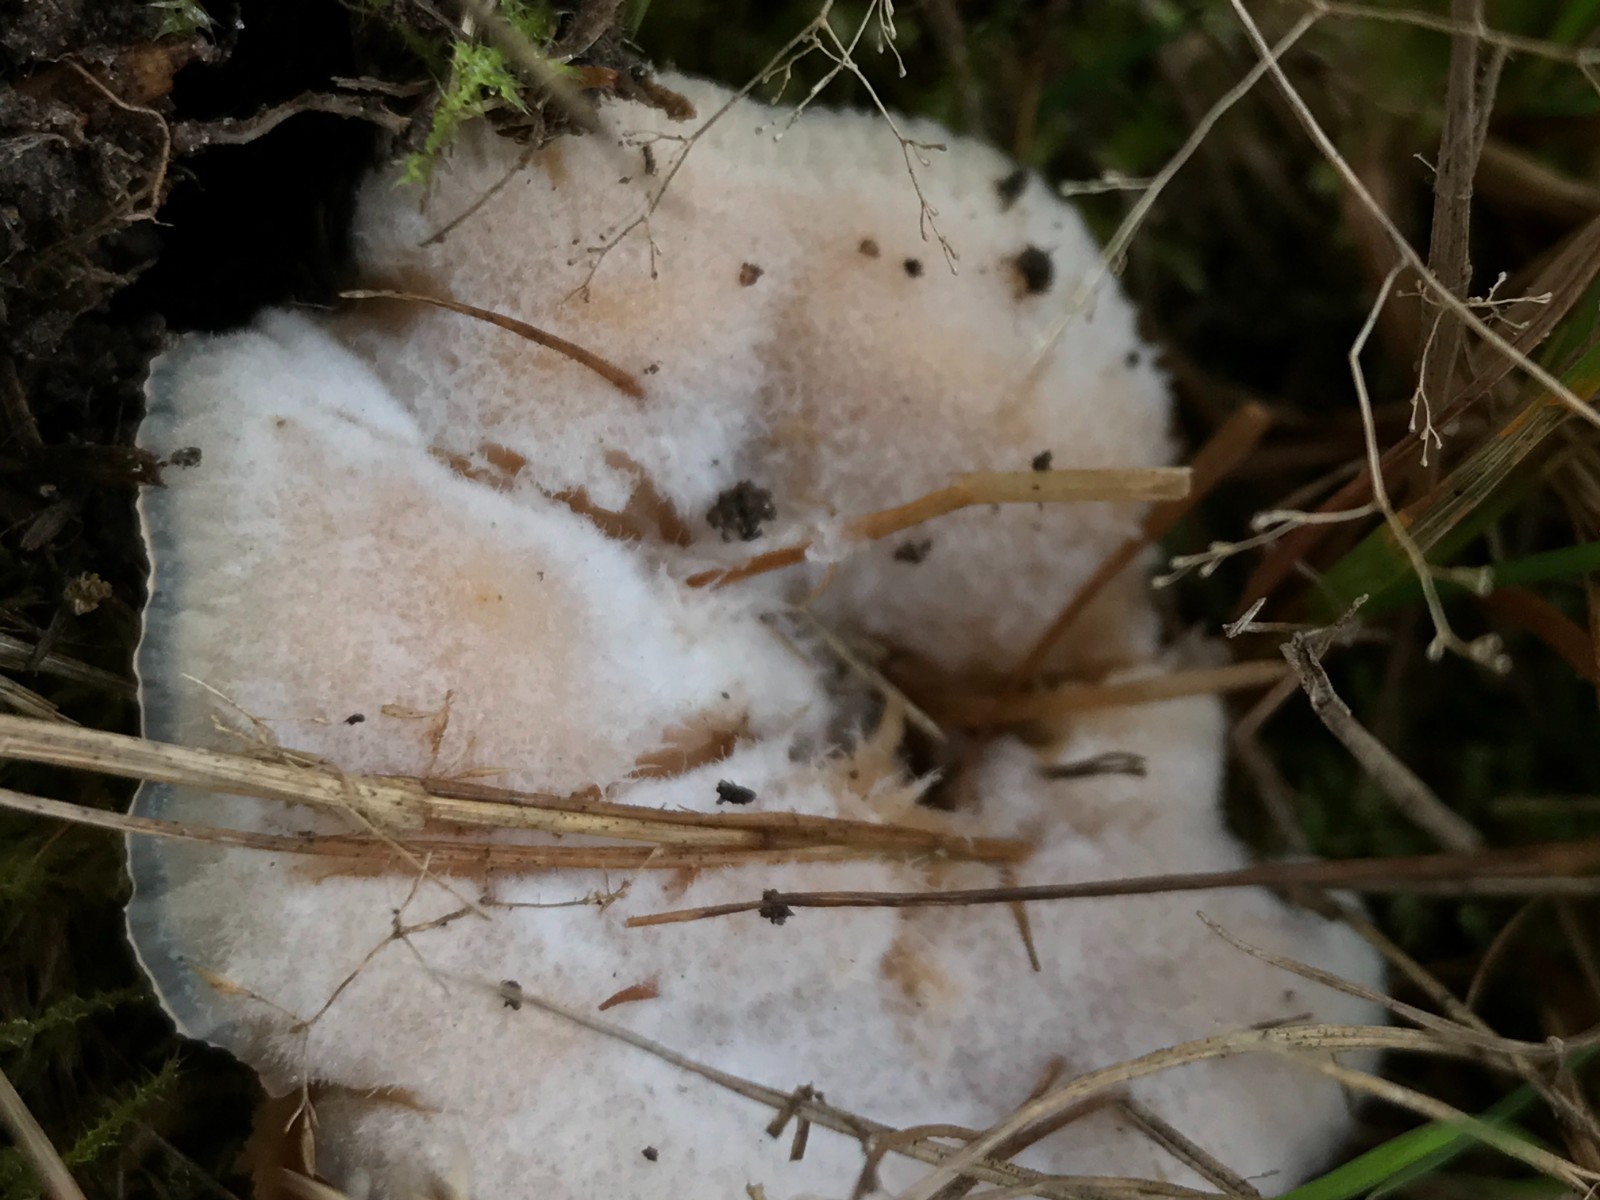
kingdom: Fungi
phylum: Basidiomycota
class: Agaricomycetes
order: Polyporales
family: Meruliaceae
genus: Phlebia
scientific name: Phlebia tremellosa
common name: bævrende åresvamp
